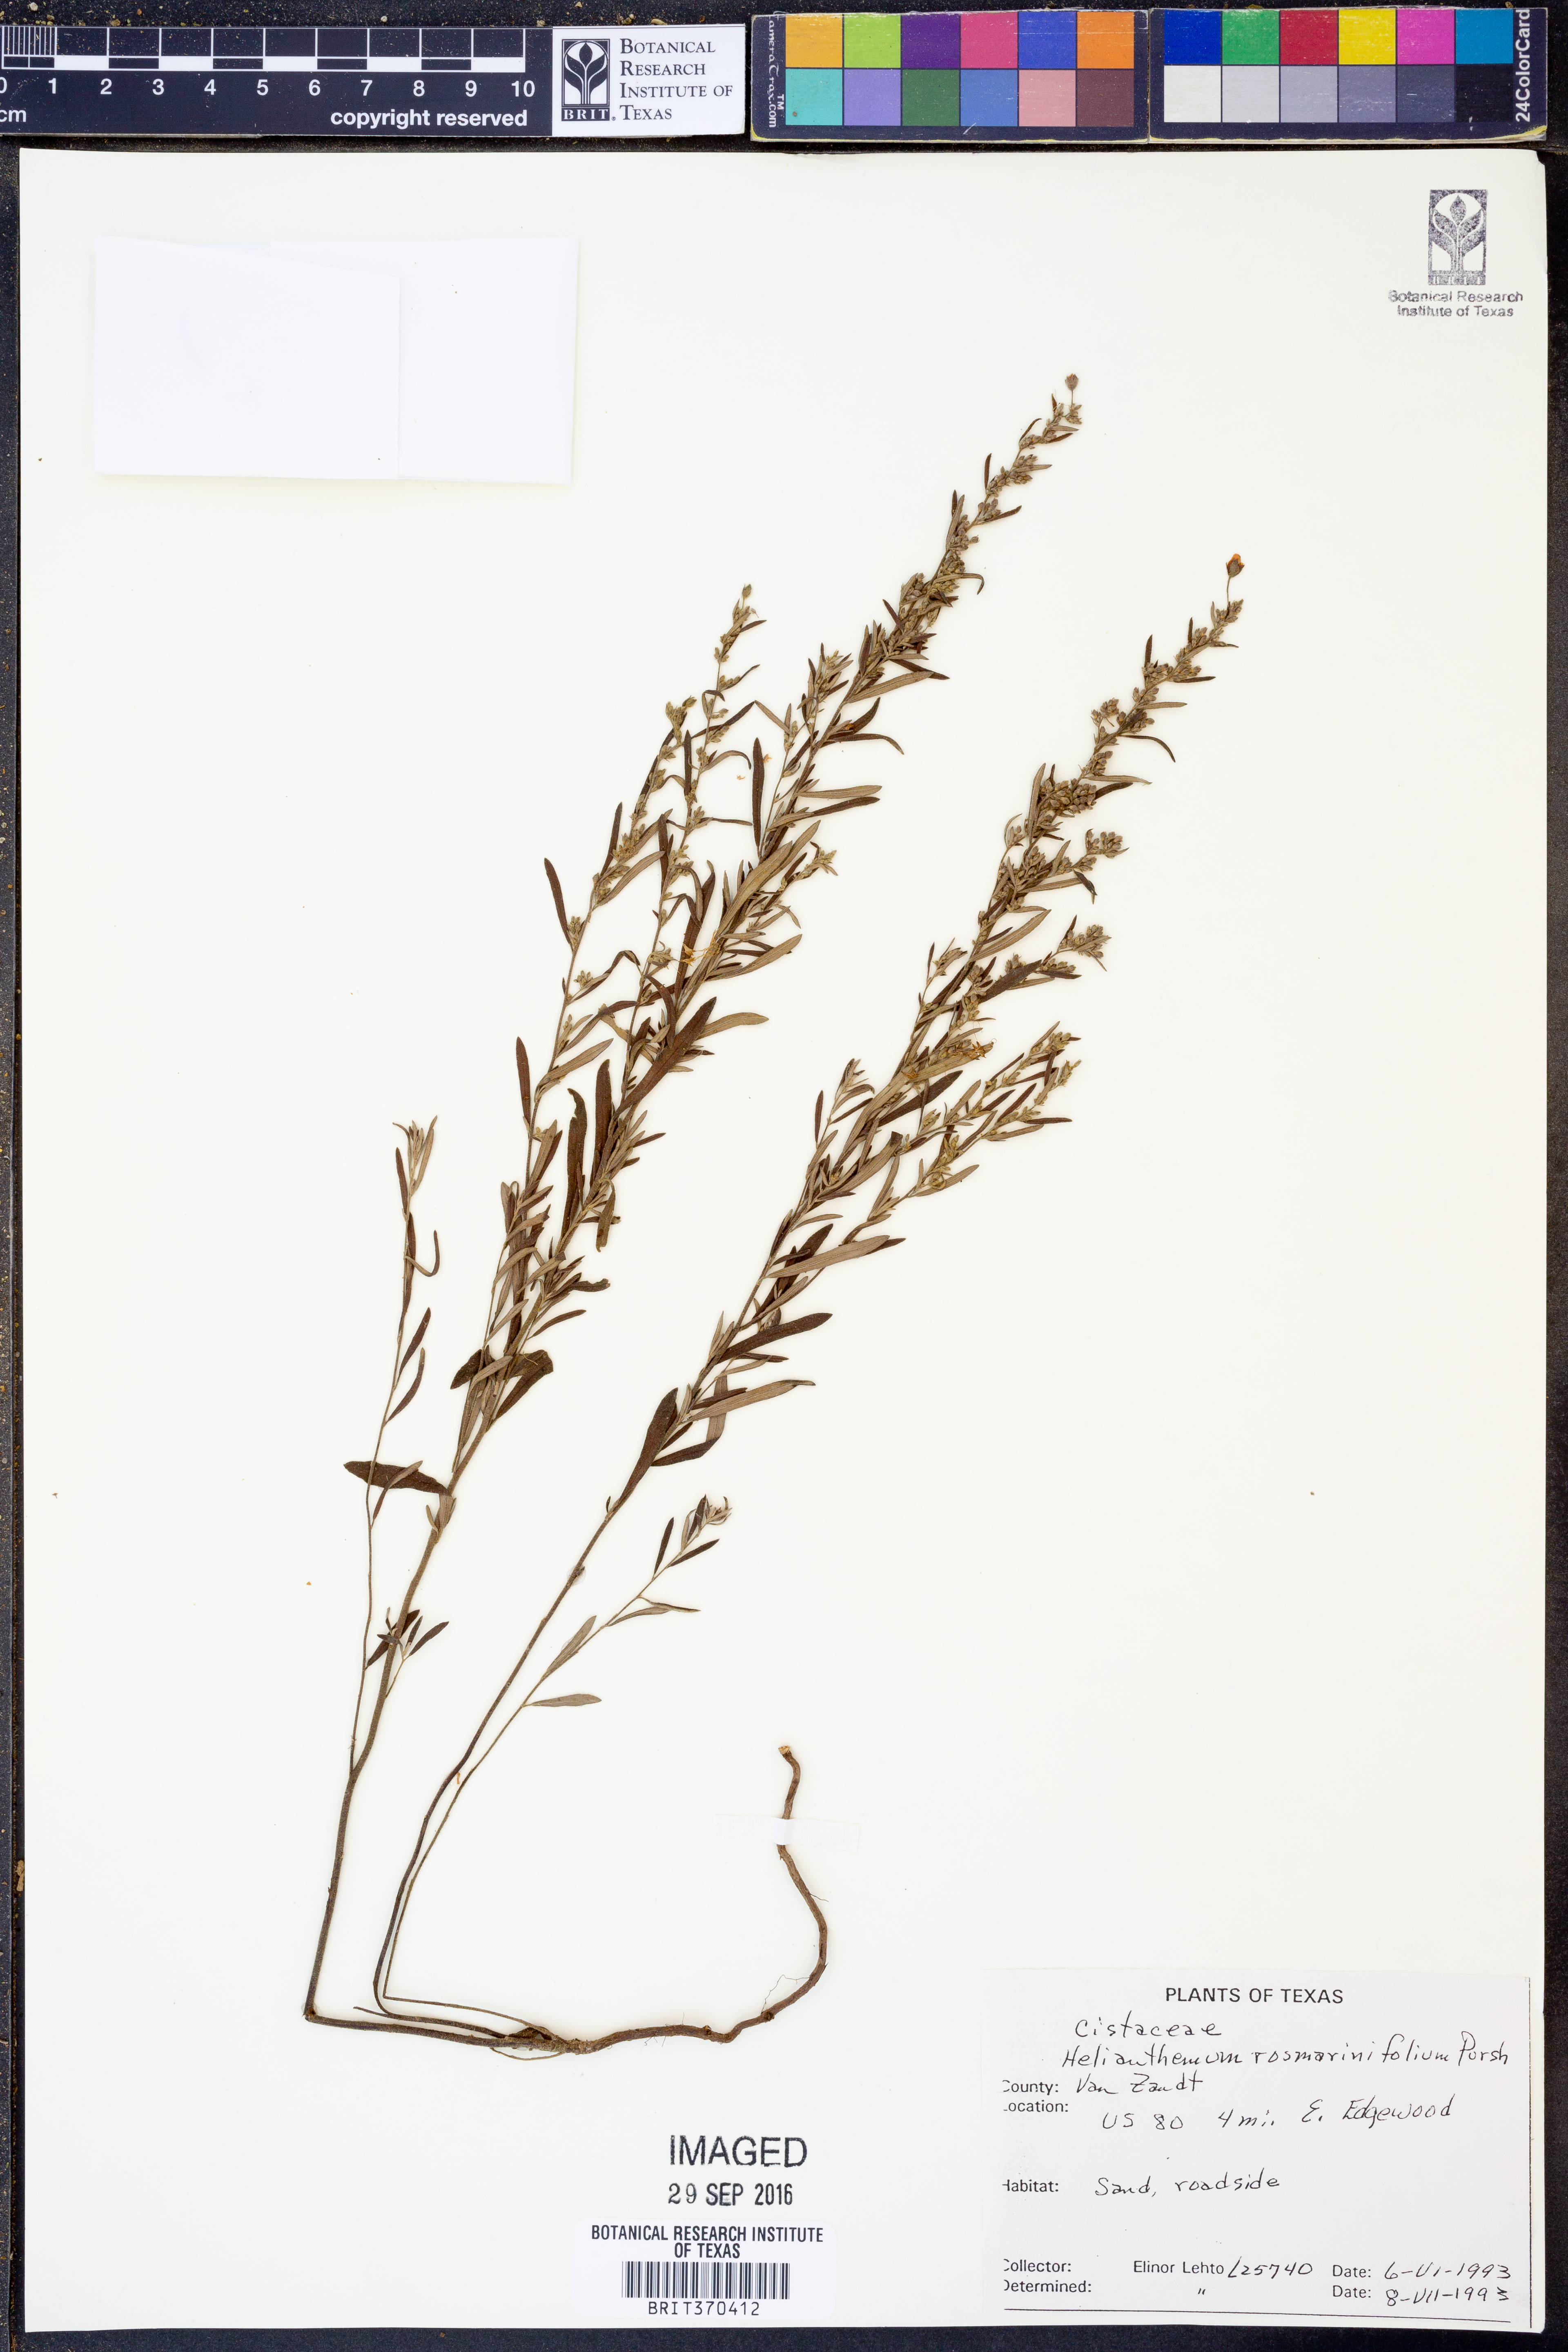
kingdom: Plantae
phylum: Tracheophyta
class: Magnoliopsida
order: Malvales
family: Cistaceae
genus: Crocanthemum
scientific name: Crocanthemum rosmarinifolium
